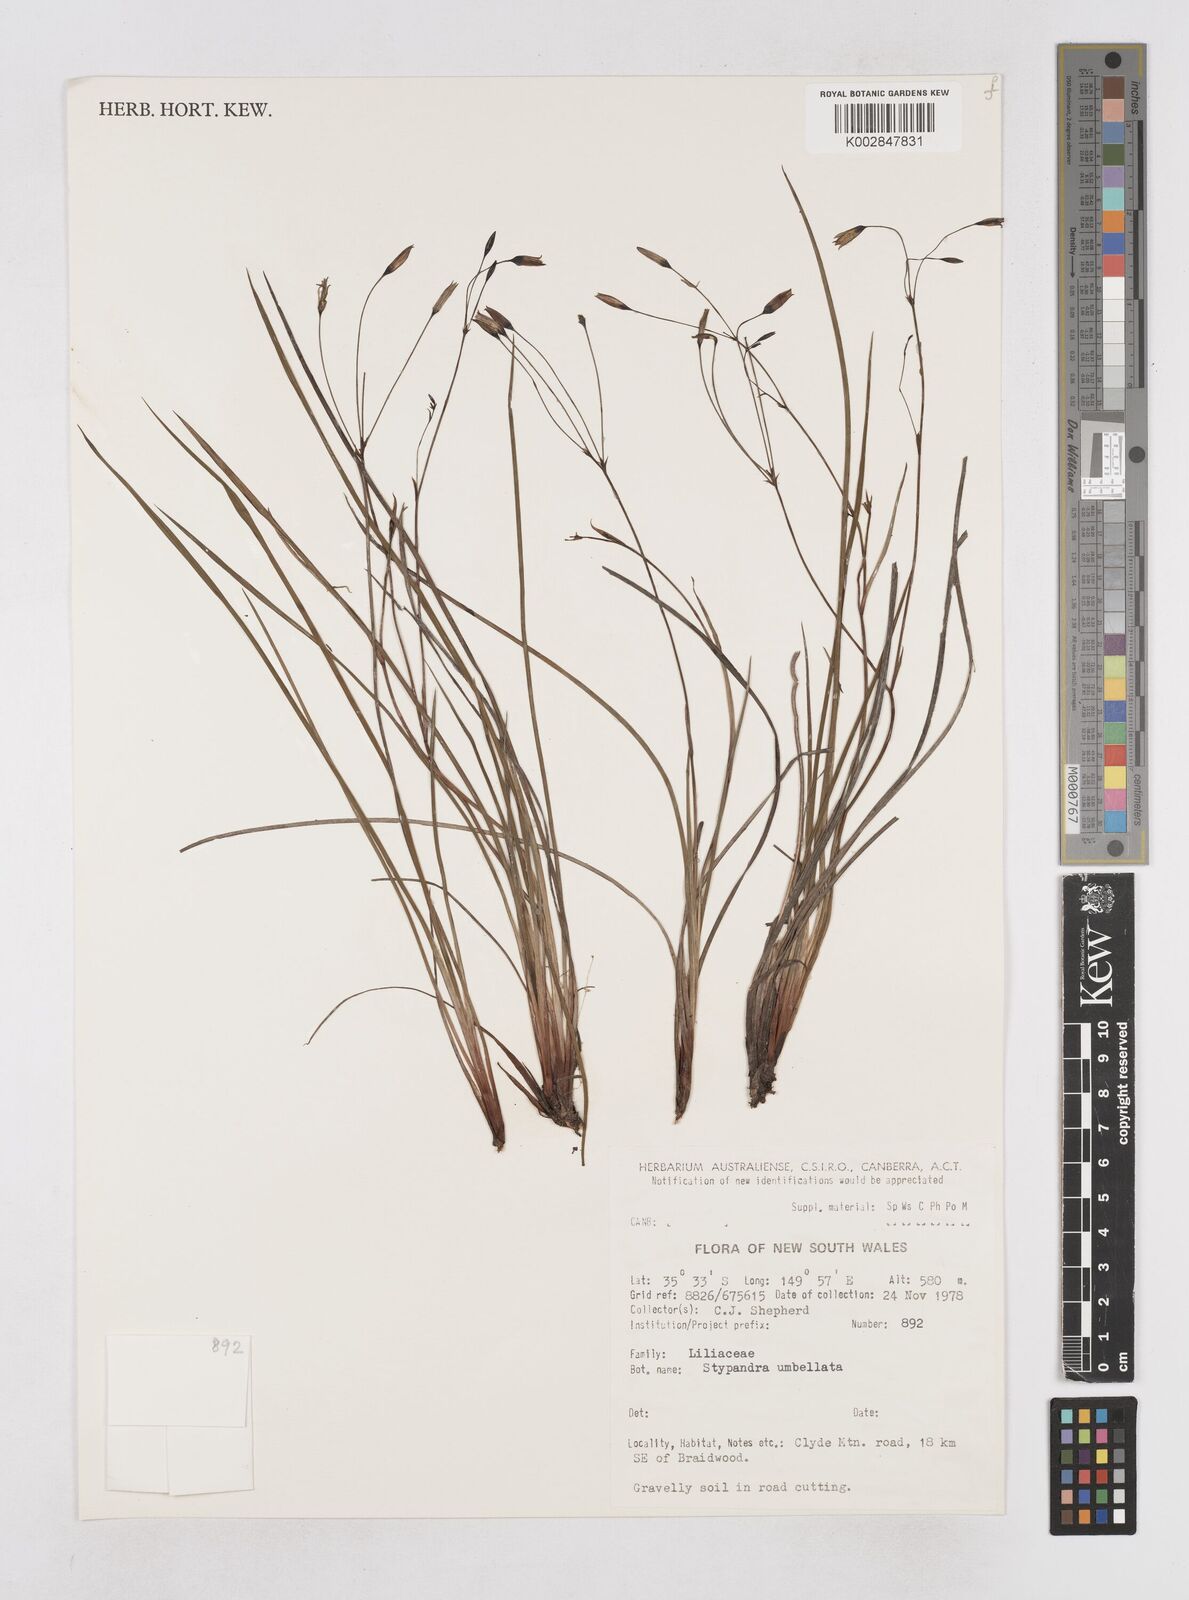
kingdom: Plantae
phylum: Tracheophyta
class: Liliopsida
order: Asparagales
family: Asphodelaceae
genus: Thelionema
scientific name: Thelionema umbellatum
